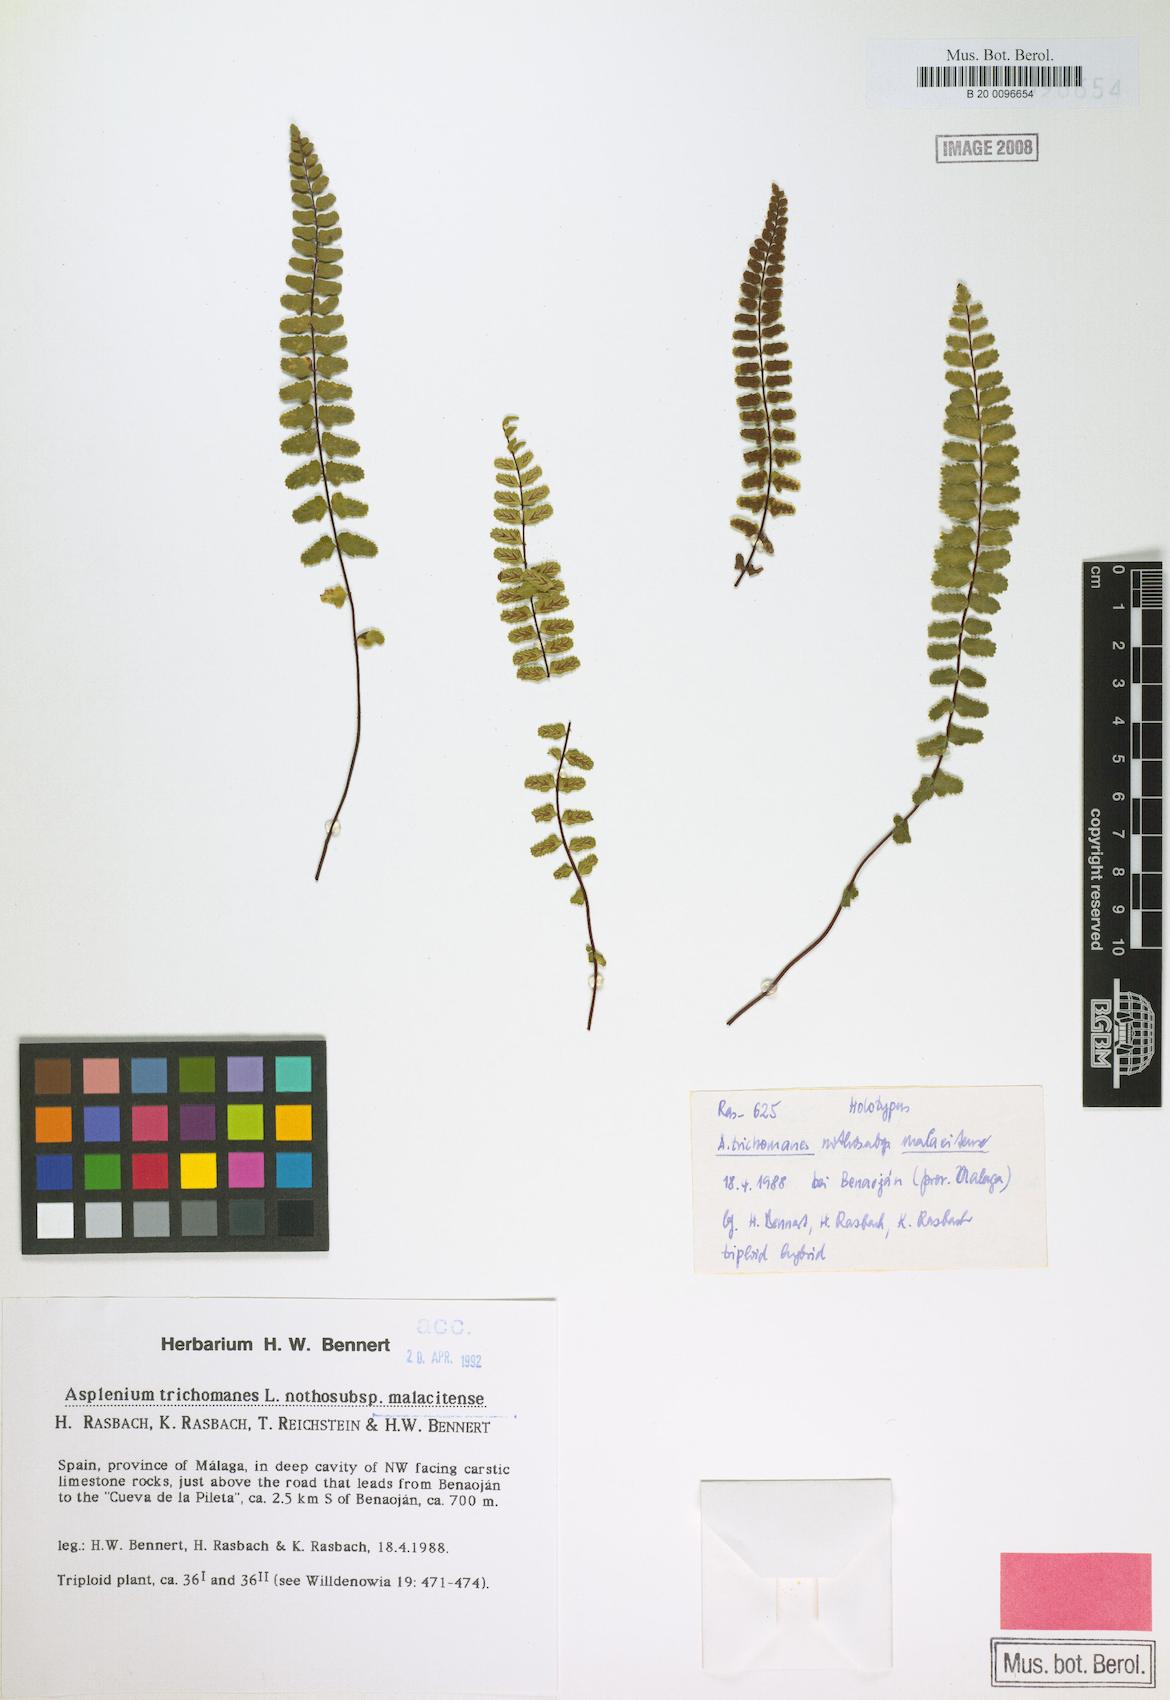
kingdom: Plantae
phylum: Tracheophyta
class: Polypodiopsida
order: Polypodiales
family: Aspleniaceae
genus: Asplenium
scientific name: Asplenium malacitense
